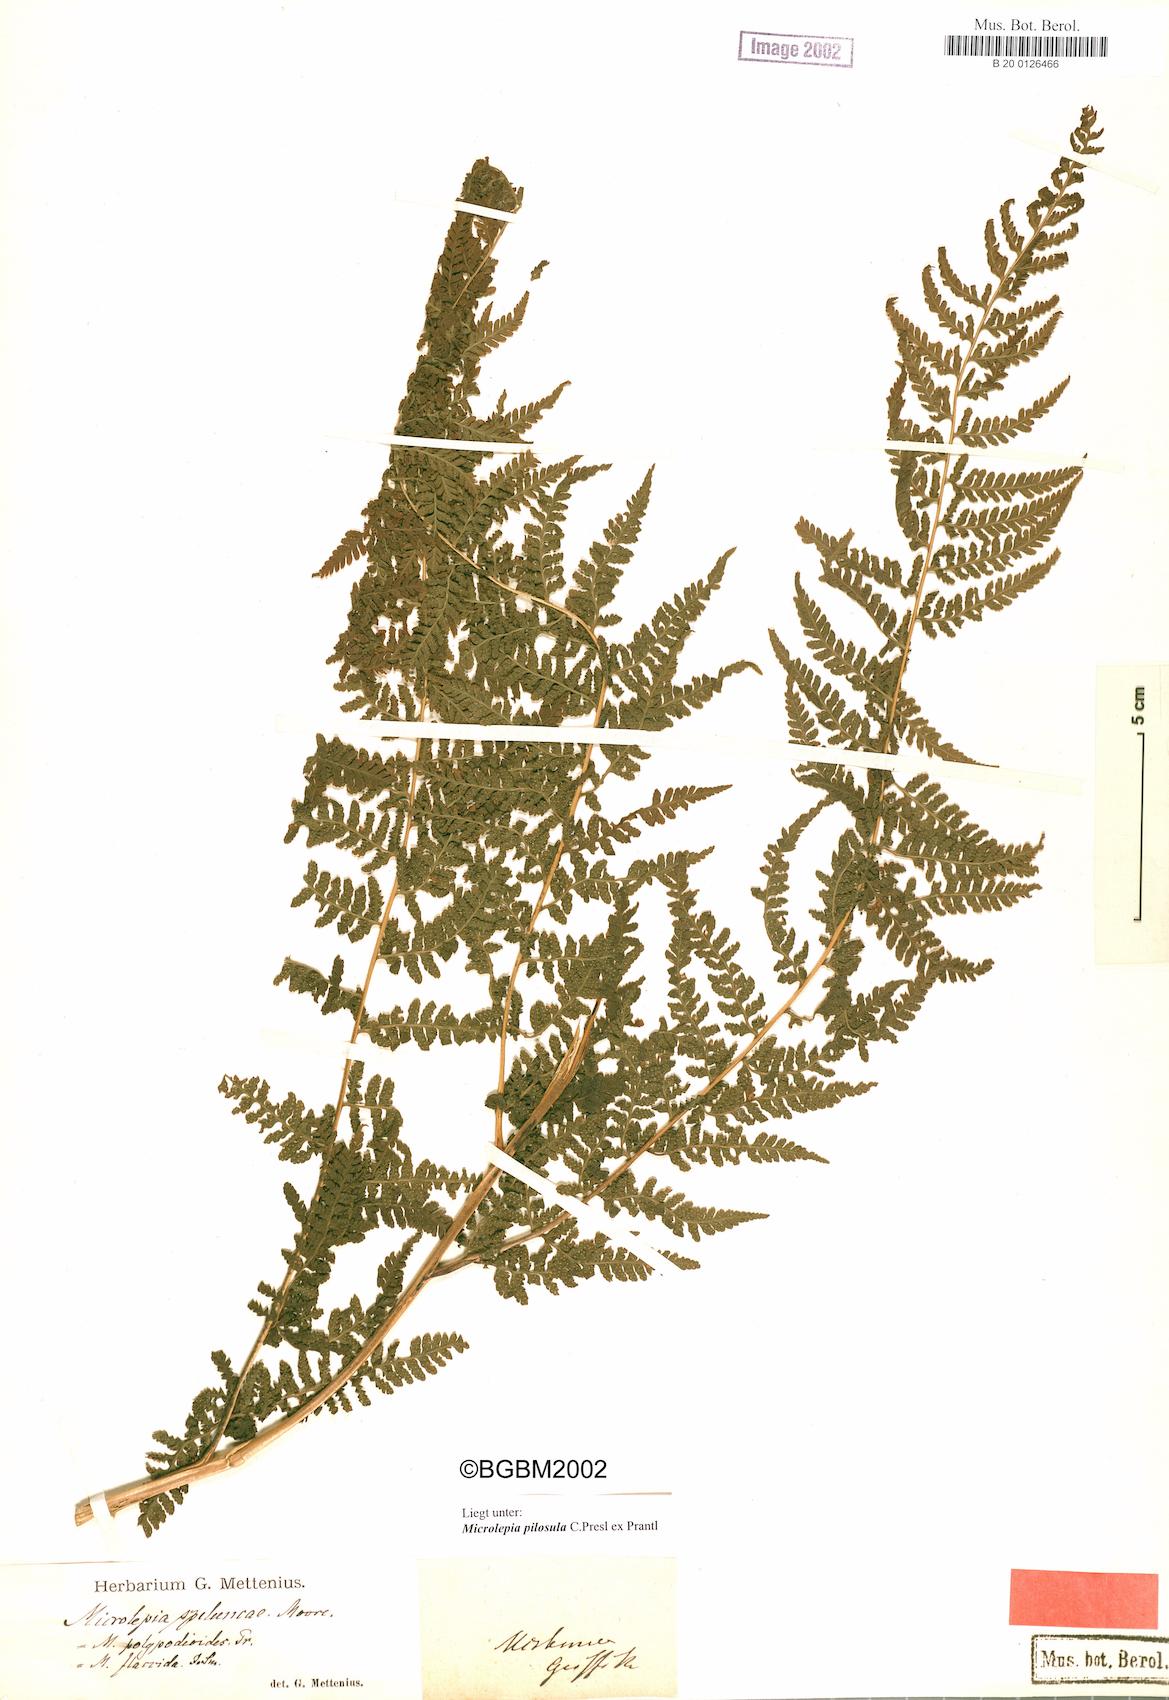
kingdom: Plantae
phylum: Tracheophyta
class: Polypodiopsida
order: Polypodiales
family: Dennstaedtiaceae
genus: Microlepia
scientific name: Microlepia speluncae
